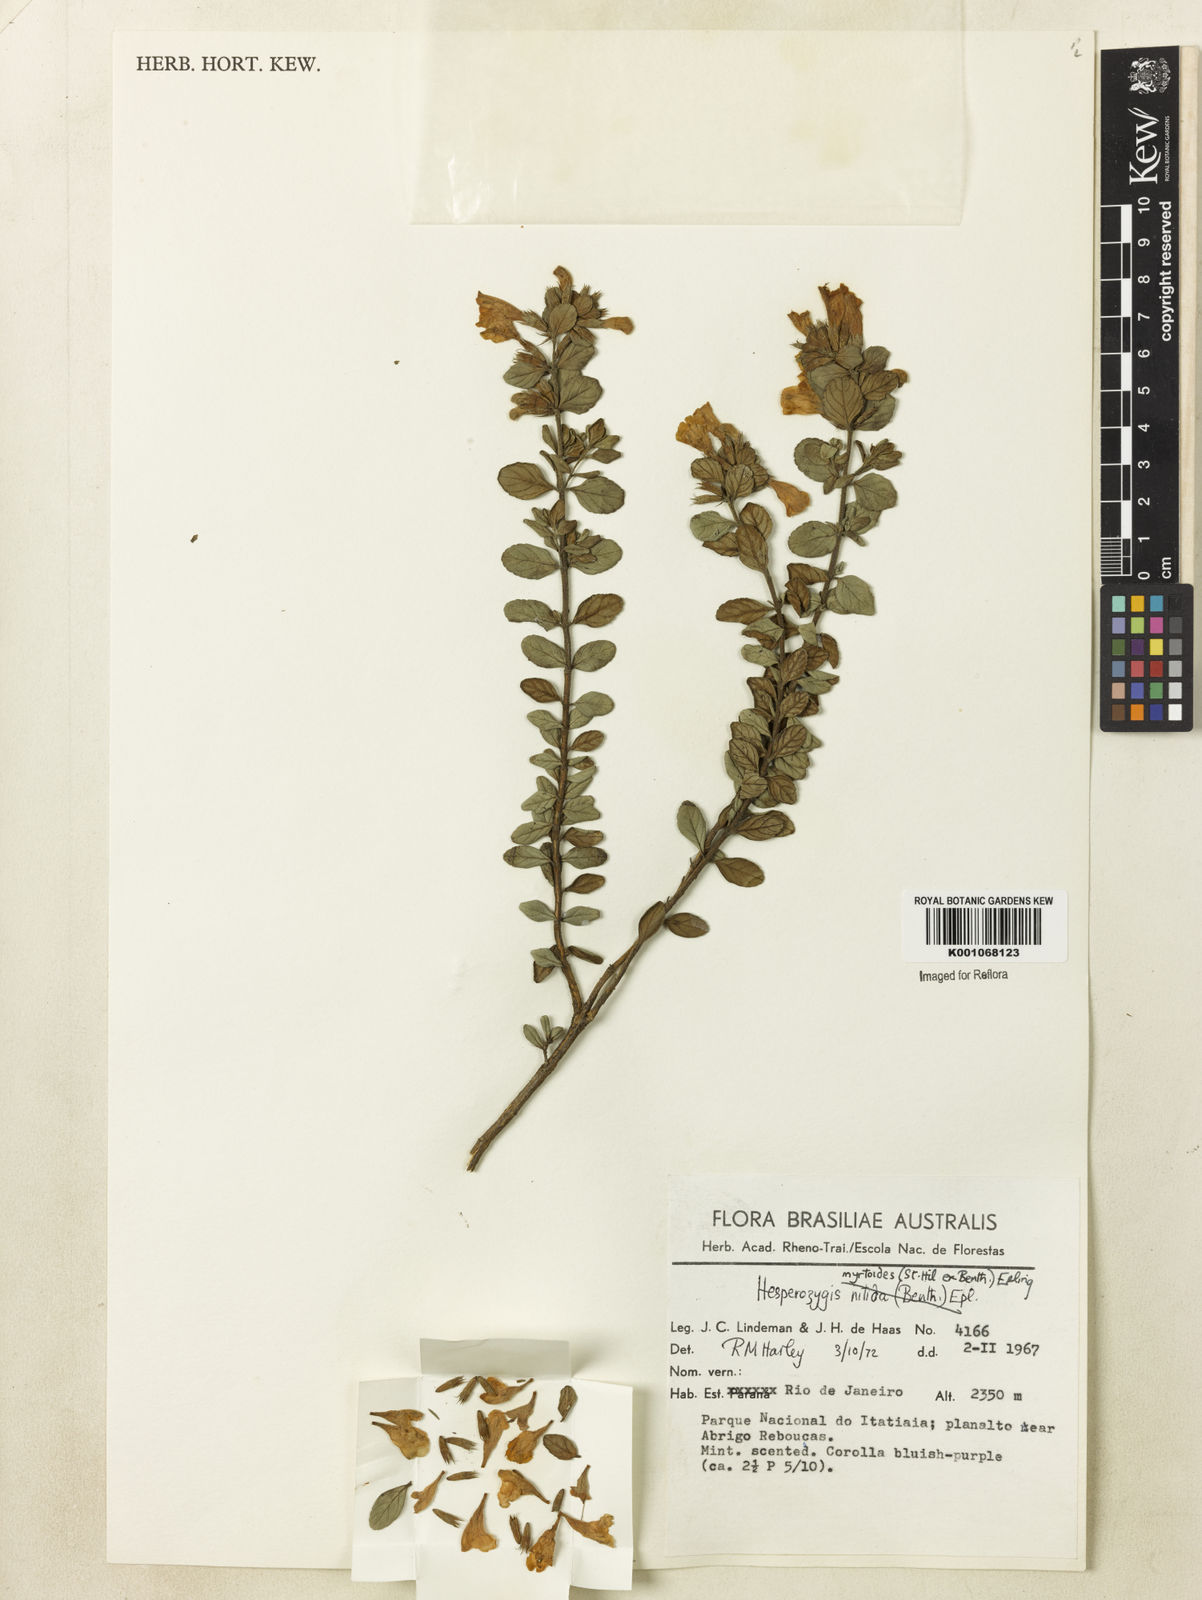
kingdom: Plantae
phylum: Tracheophyta
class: Magnoliopsida
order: Lamiales
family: Lamiaceae
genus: Hesperozygis
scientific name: Hesperozygis myrtoides
